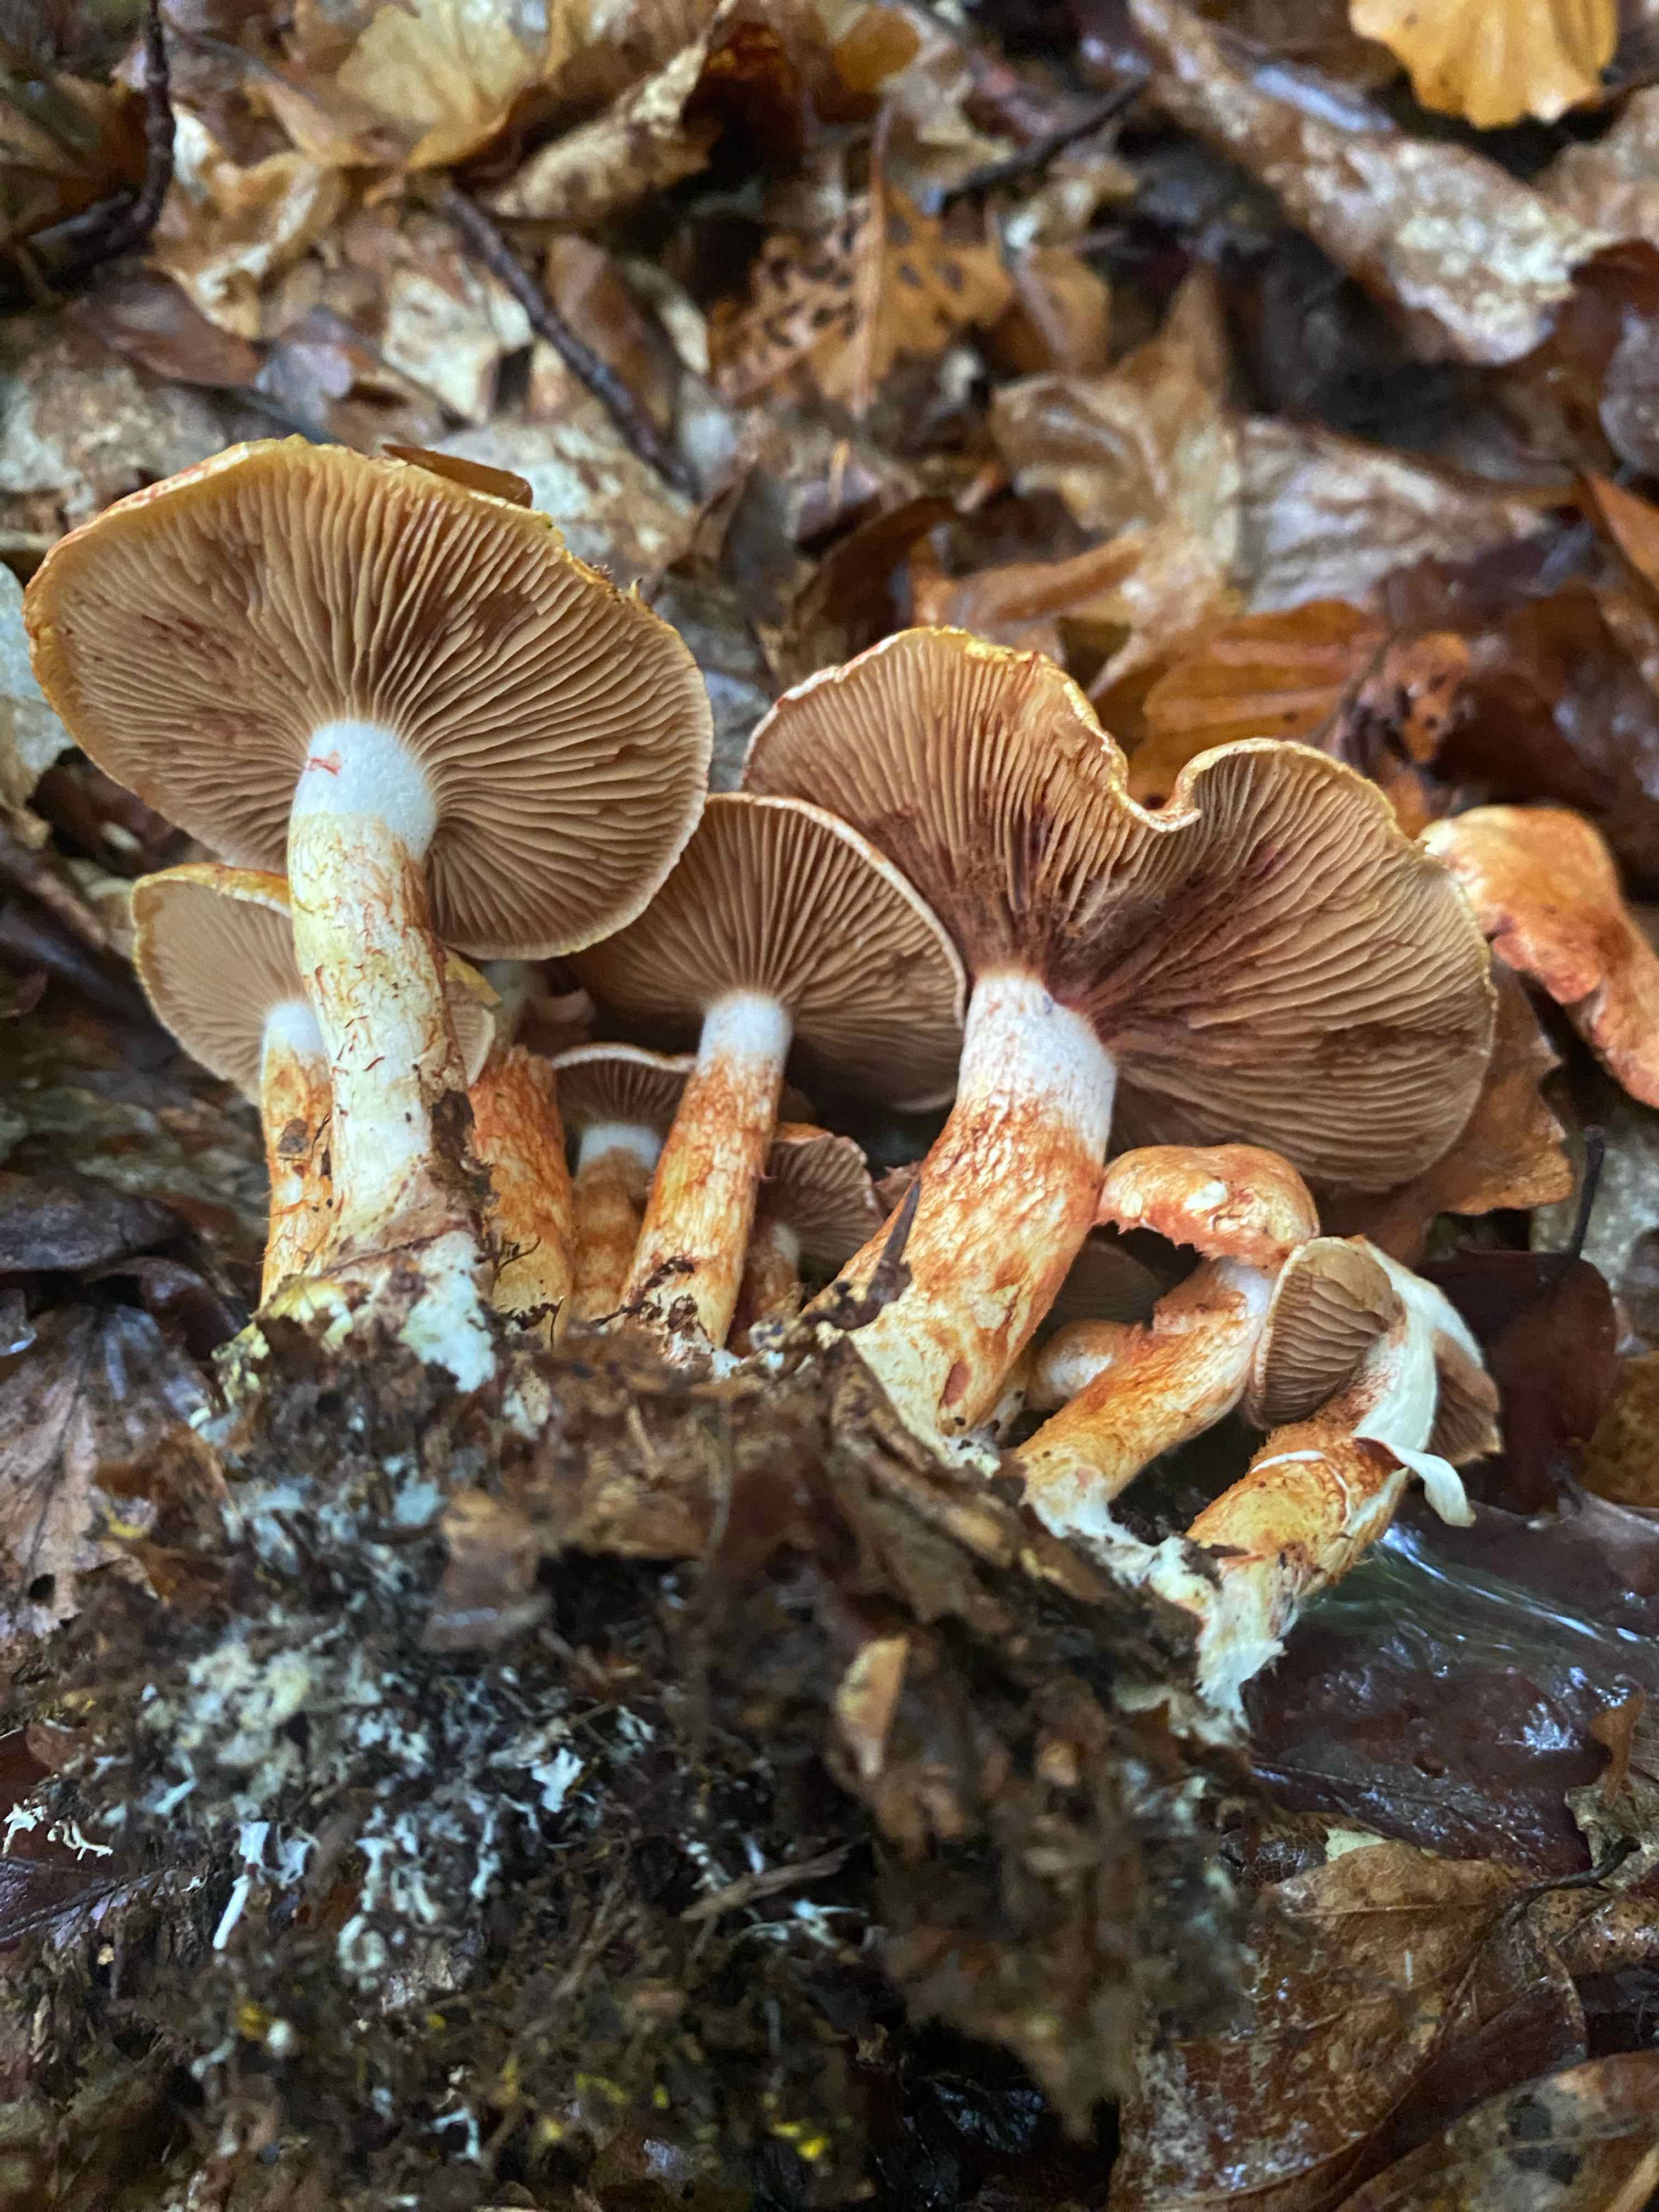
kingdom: Fungi
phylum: Basidiomycota
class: Agaricomycetes
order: Agaricales
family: Cortinariaceae
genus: Cortinarius
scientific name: Cortinarius bolaris
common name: cinnoberskællet slørhat
